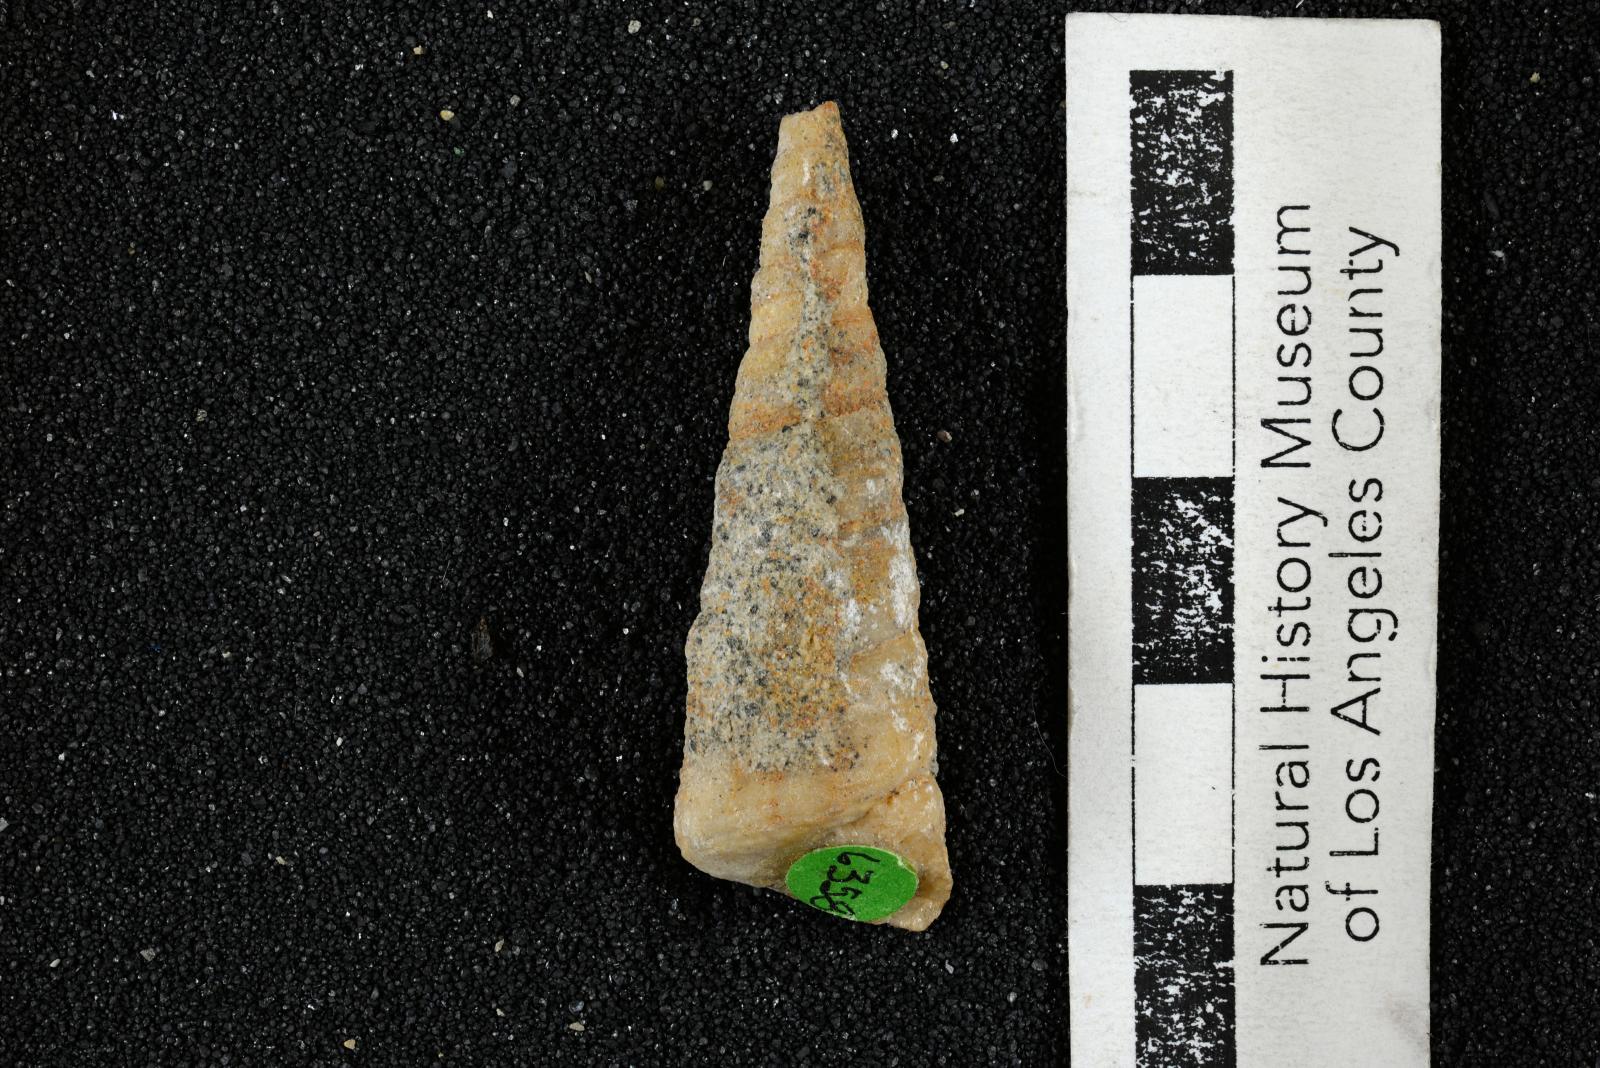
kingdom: Animalia
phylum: Mollusca
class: Gastropoda
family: Turritellidae
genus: Turritella
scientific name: Turritella chaneyi
